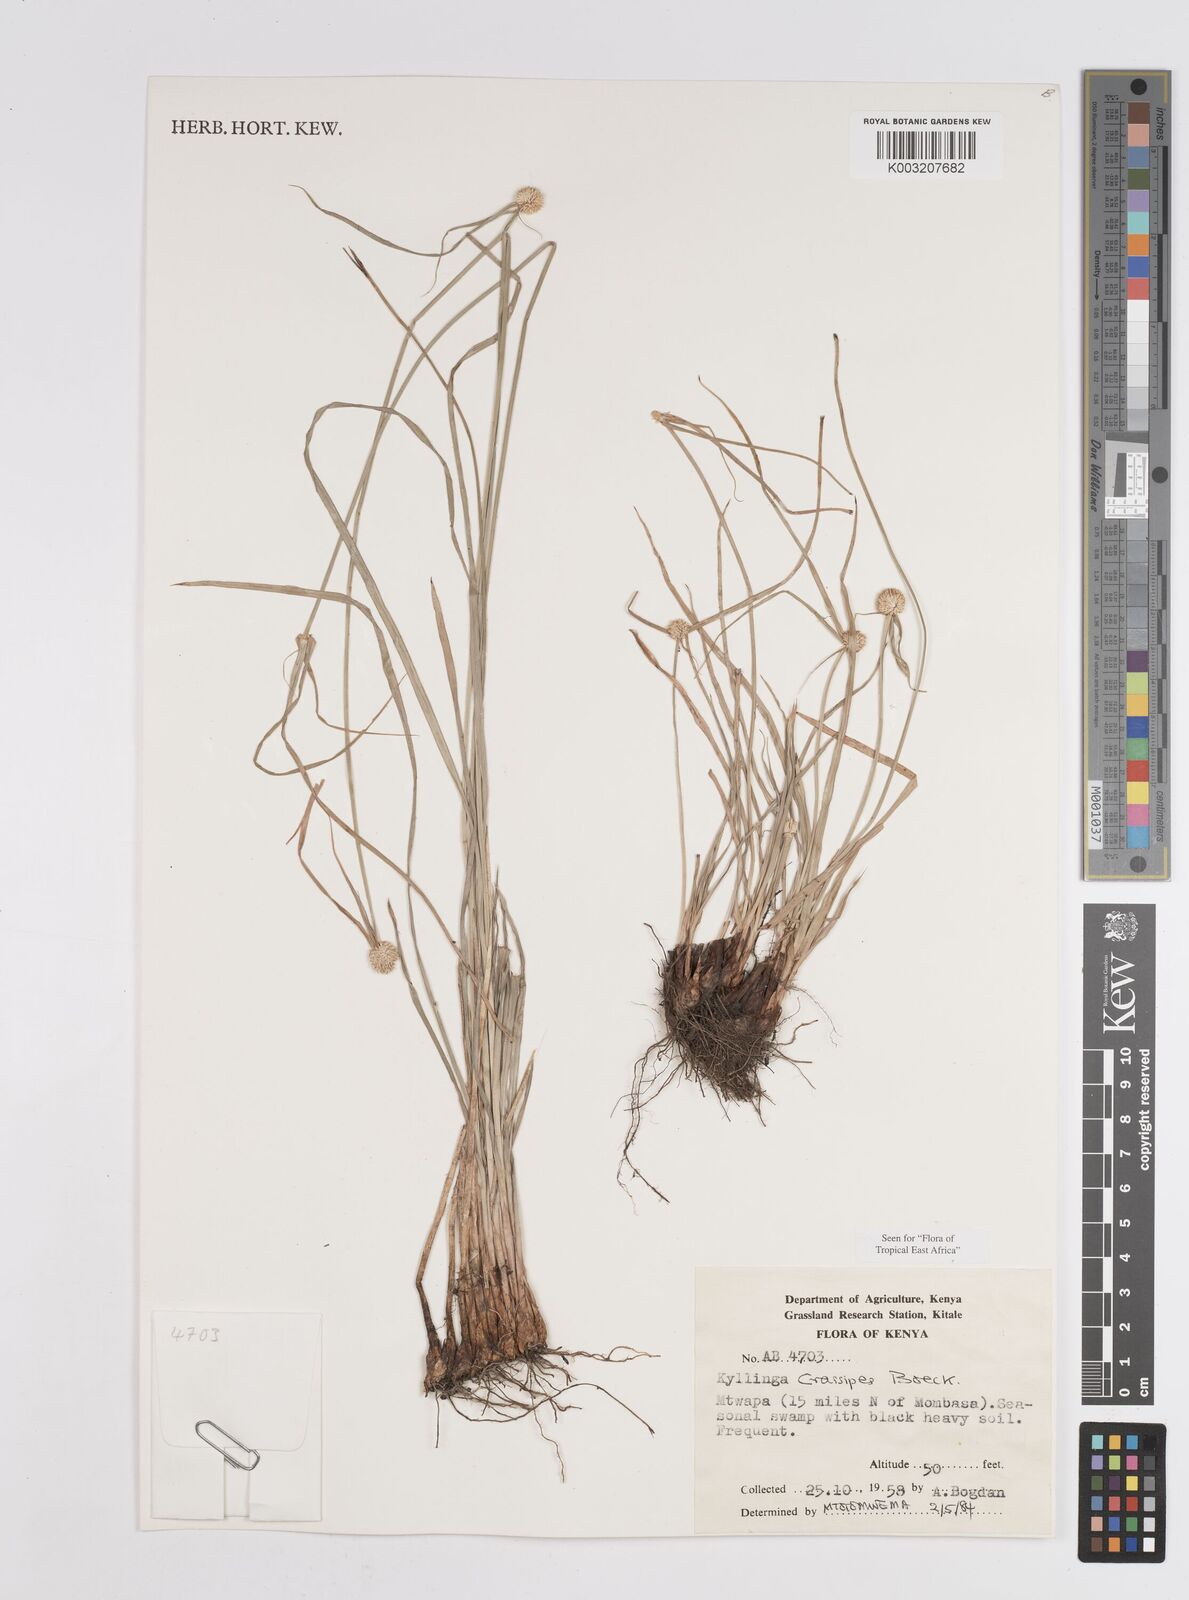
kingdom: Plantae
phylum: Tracheophyta
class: Liliopsida
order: Poales
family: Cyperaceae
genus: Cyperus
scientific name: Cyperus crassipes
